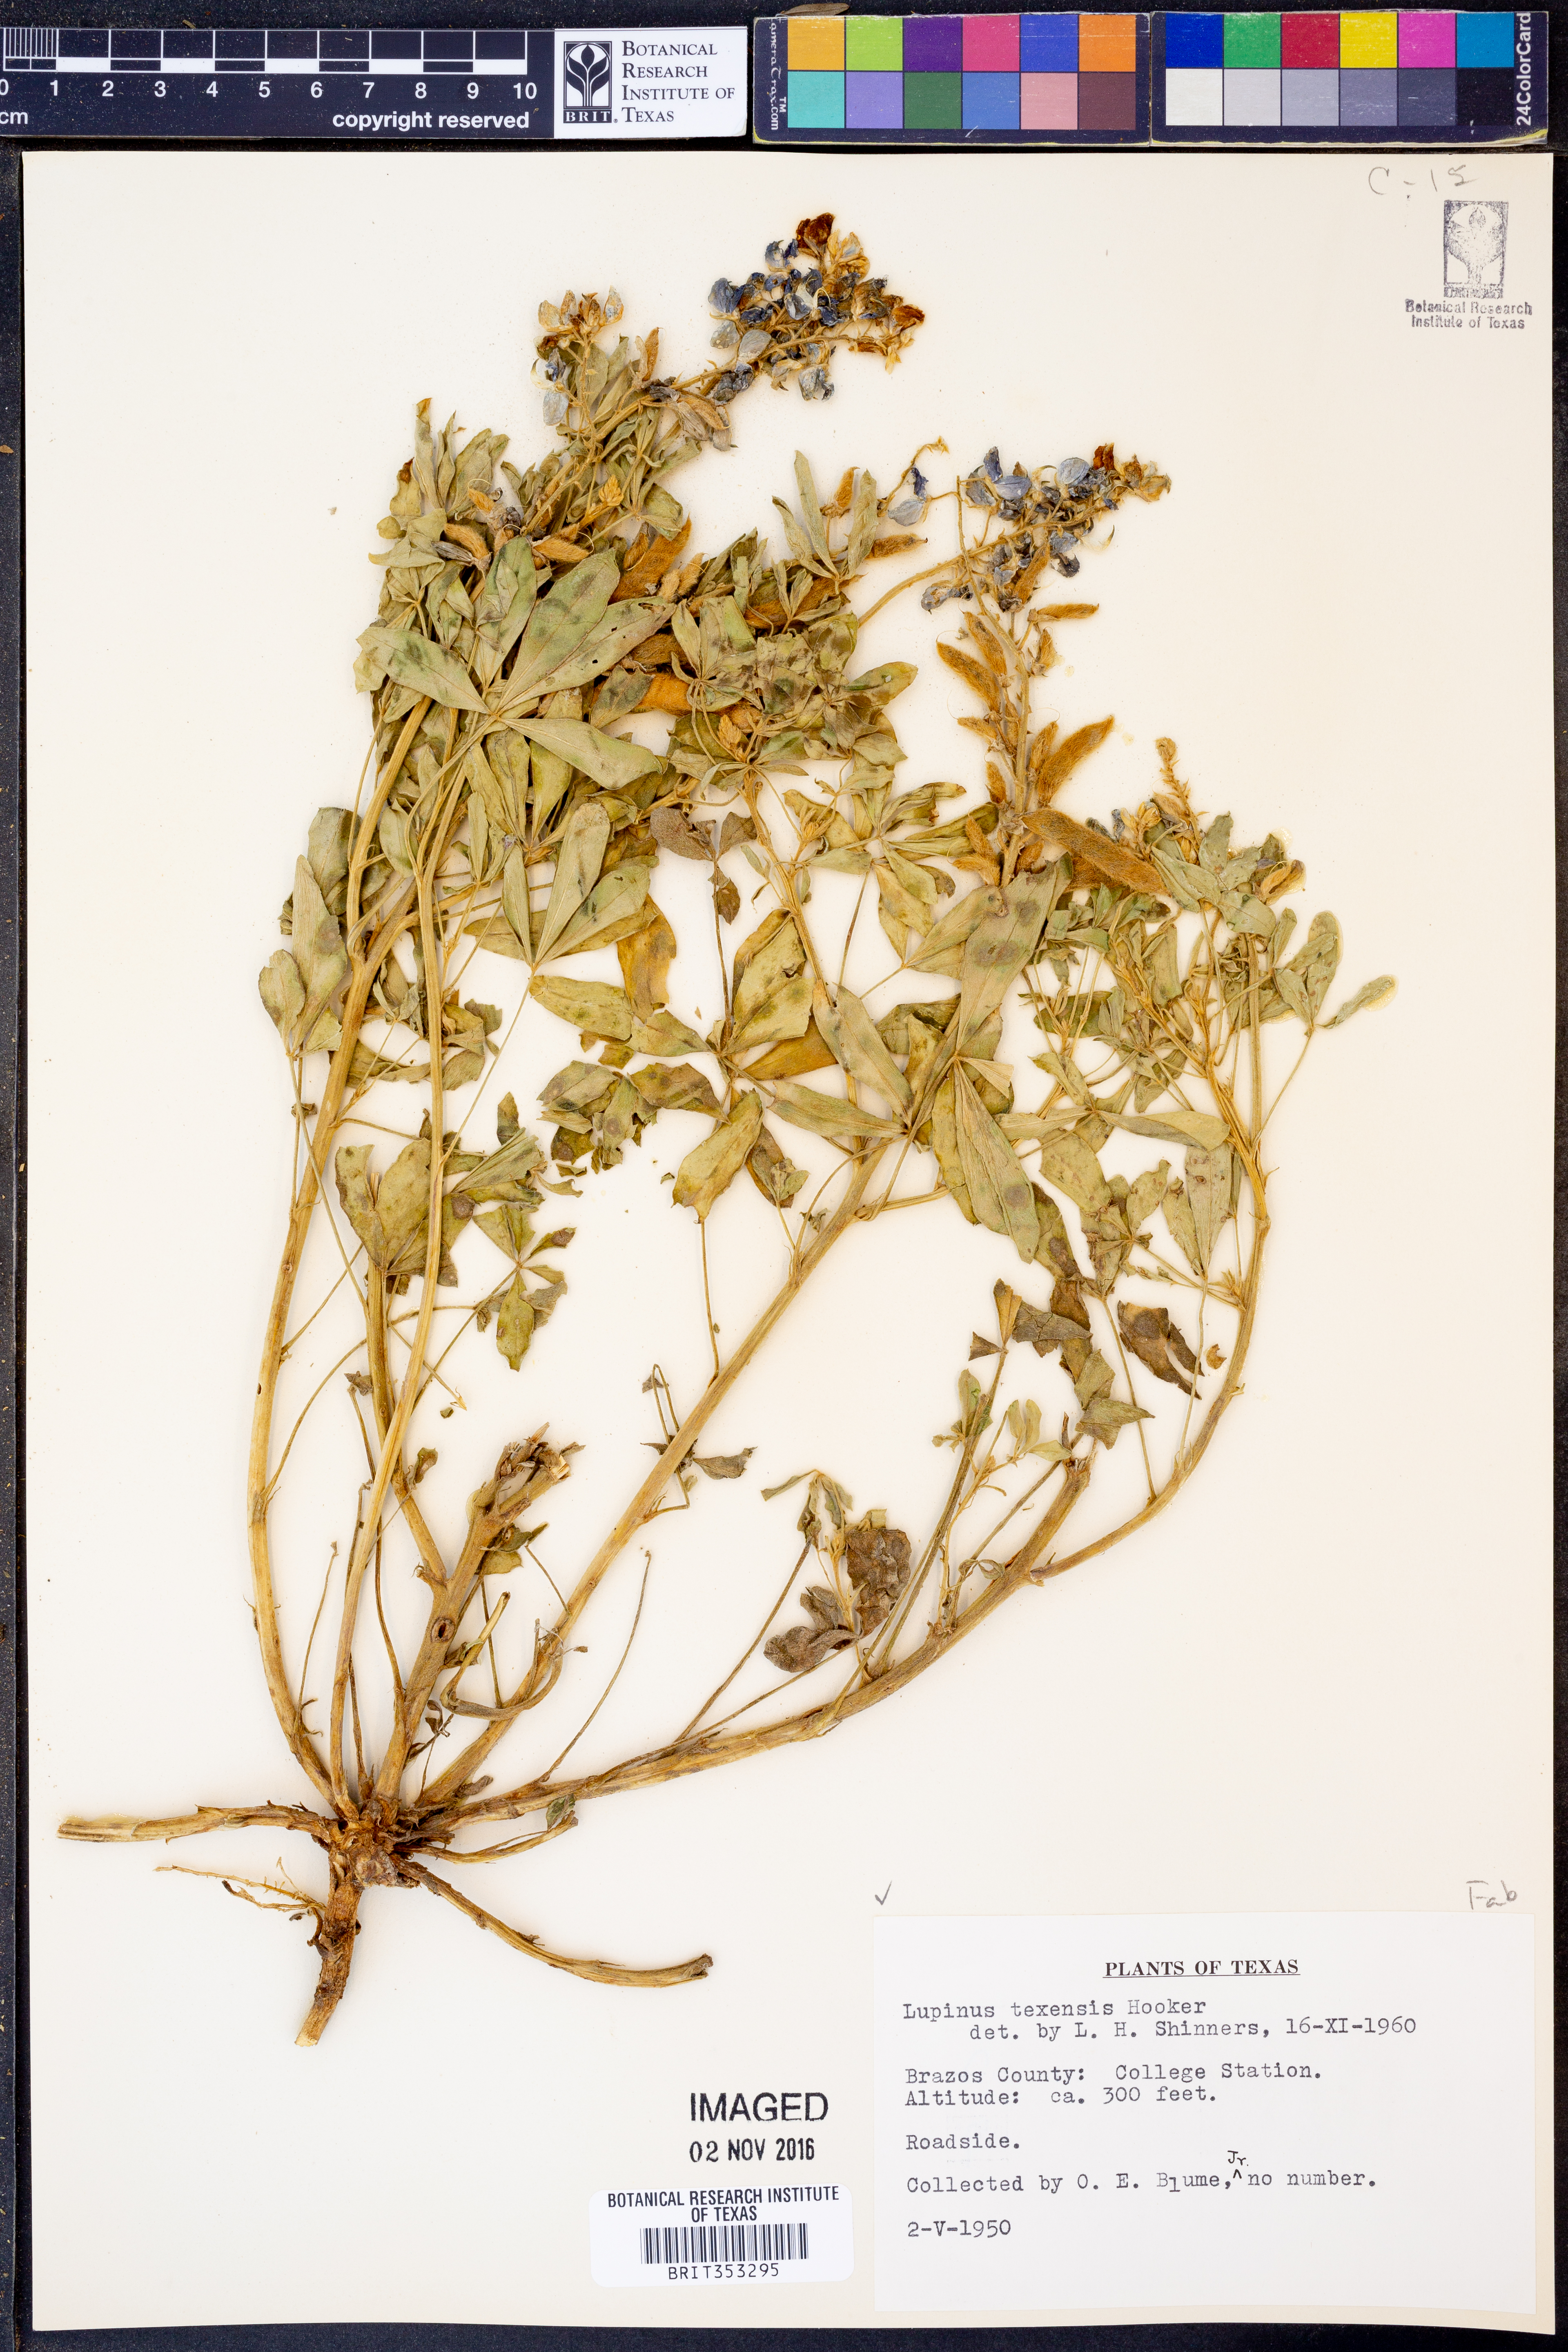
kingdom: Plantae
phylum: Tracheophyta
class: Magnoliopsida
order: Fabales
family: Fabaceae
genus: Lupinus
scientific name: Lupinus texensis
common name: Texas bluebonnet
